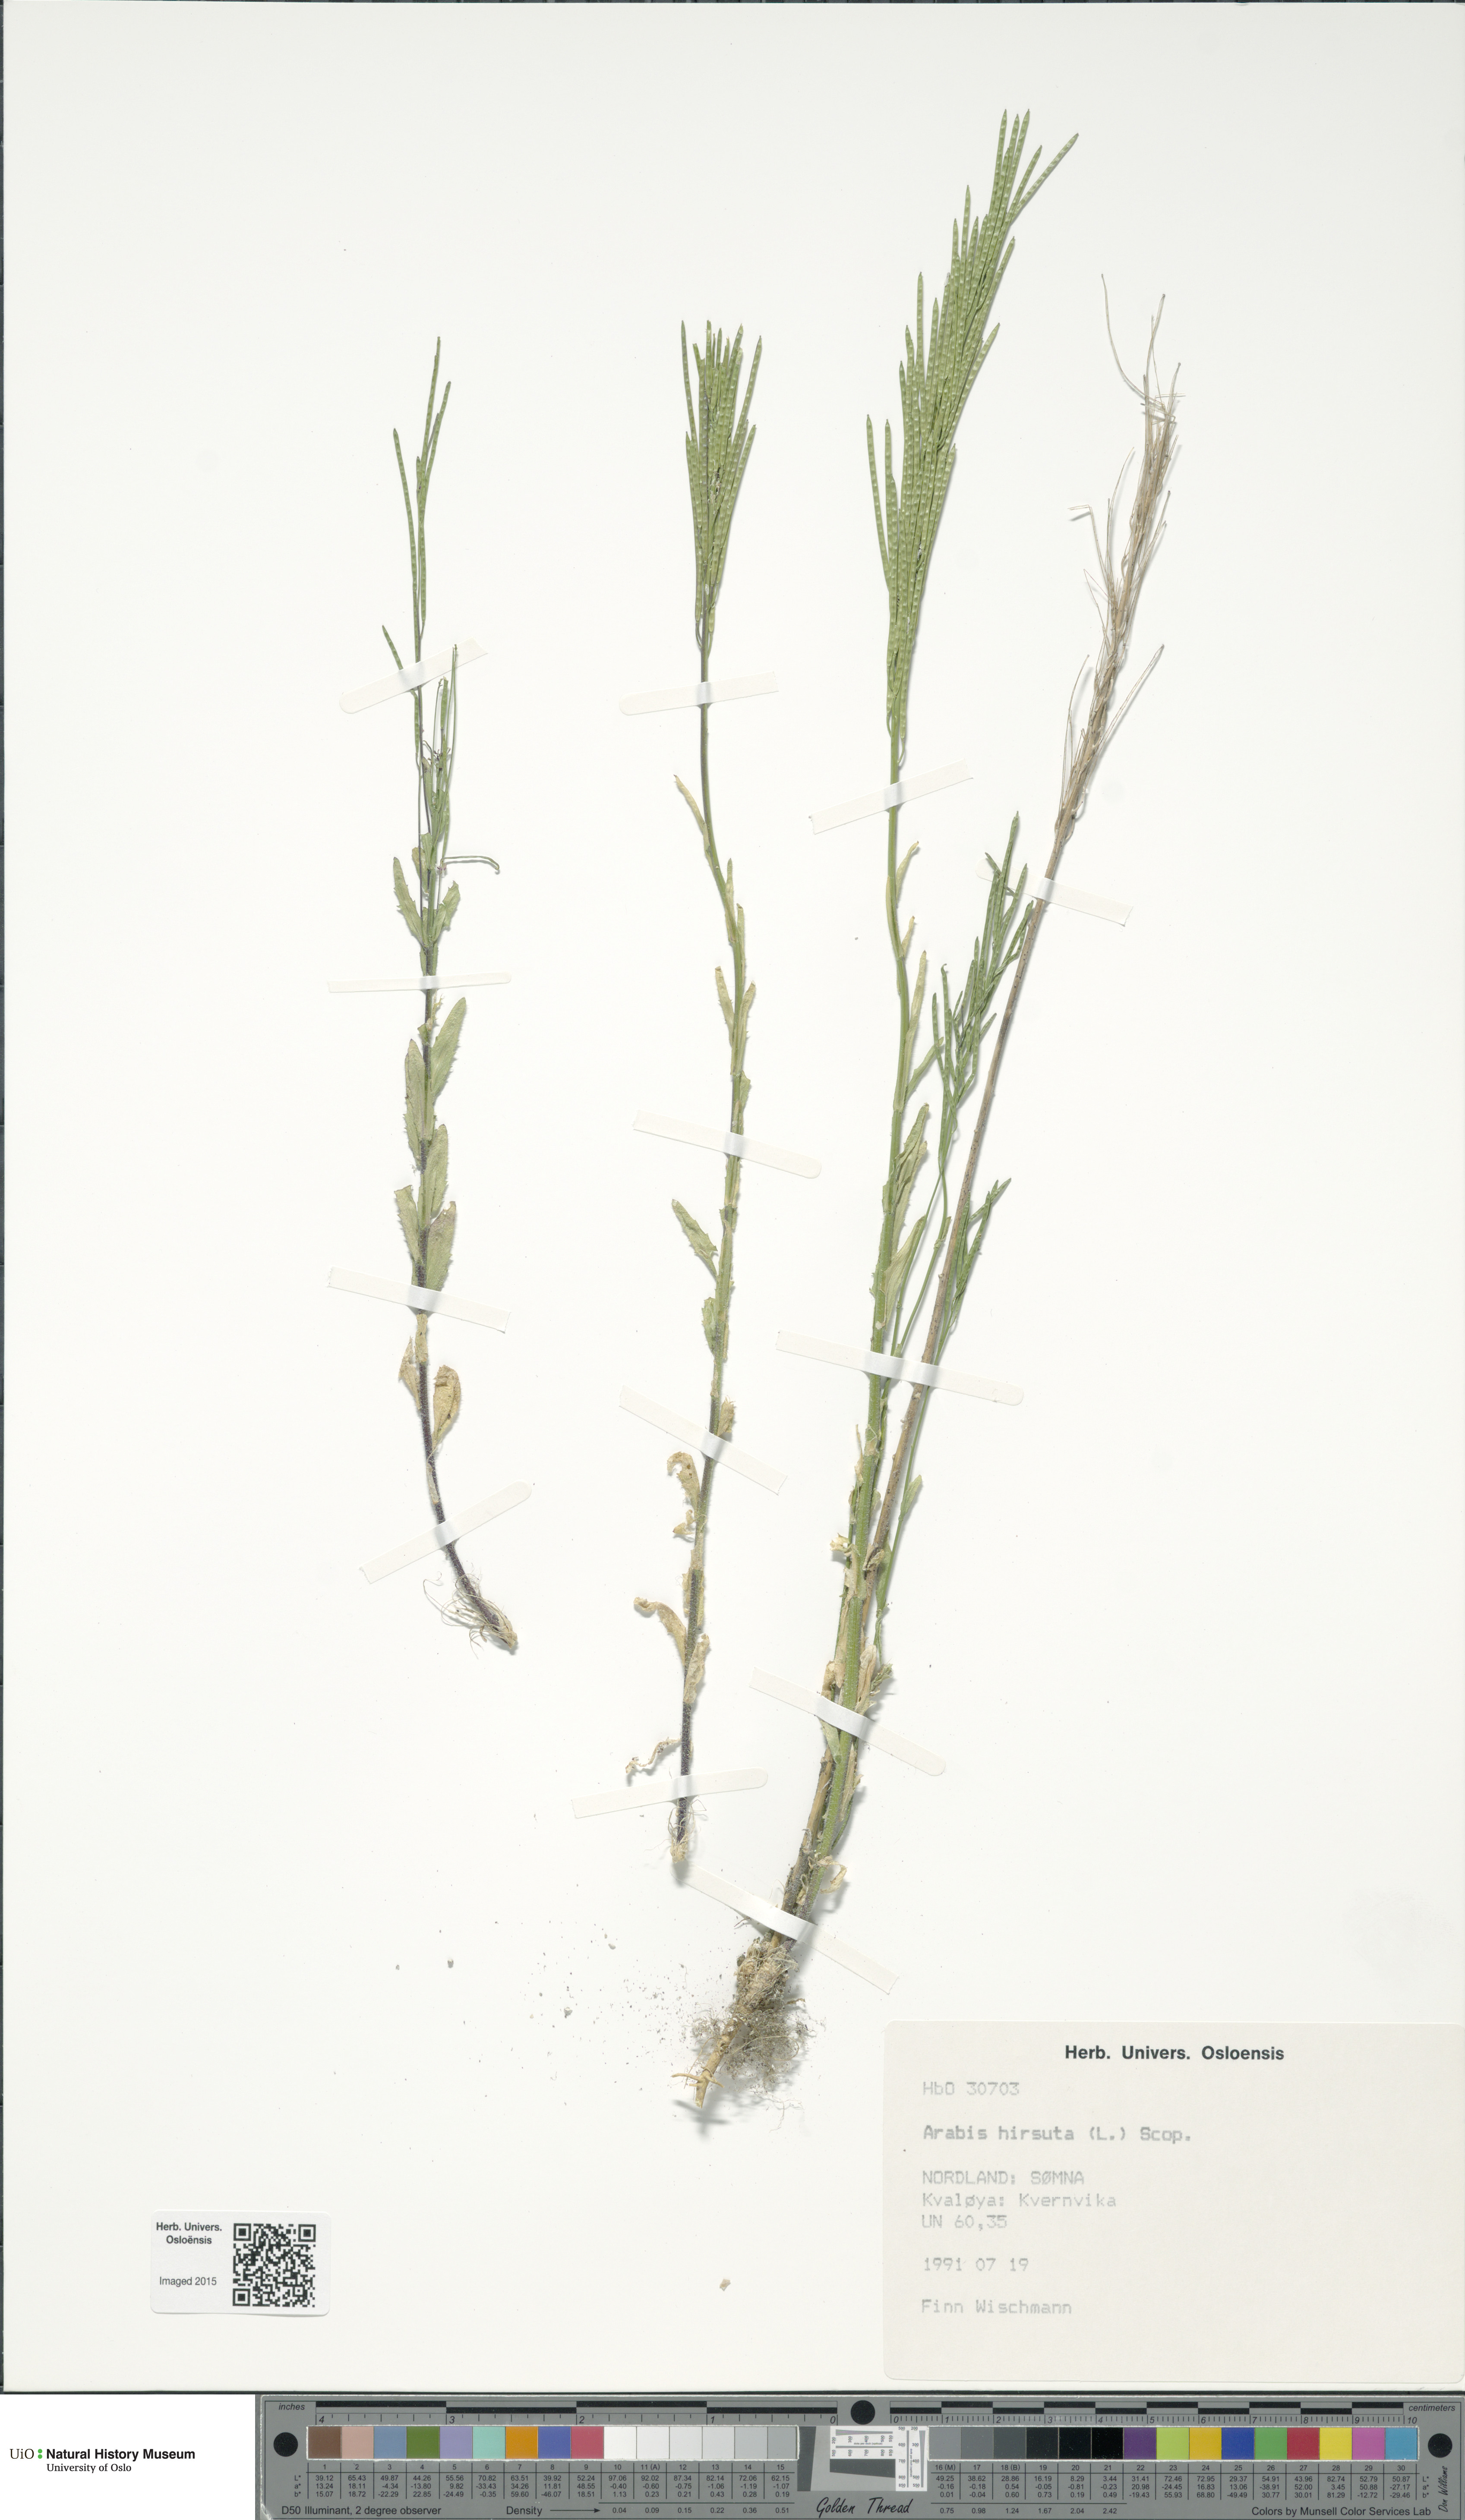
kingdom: Plantae
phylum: Tracheophyta
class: Magnoliopsida
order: Brassicales
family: Brassicaceae
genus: Arabis
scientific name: Arabis hirsuta
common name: Hairy rock-cress
